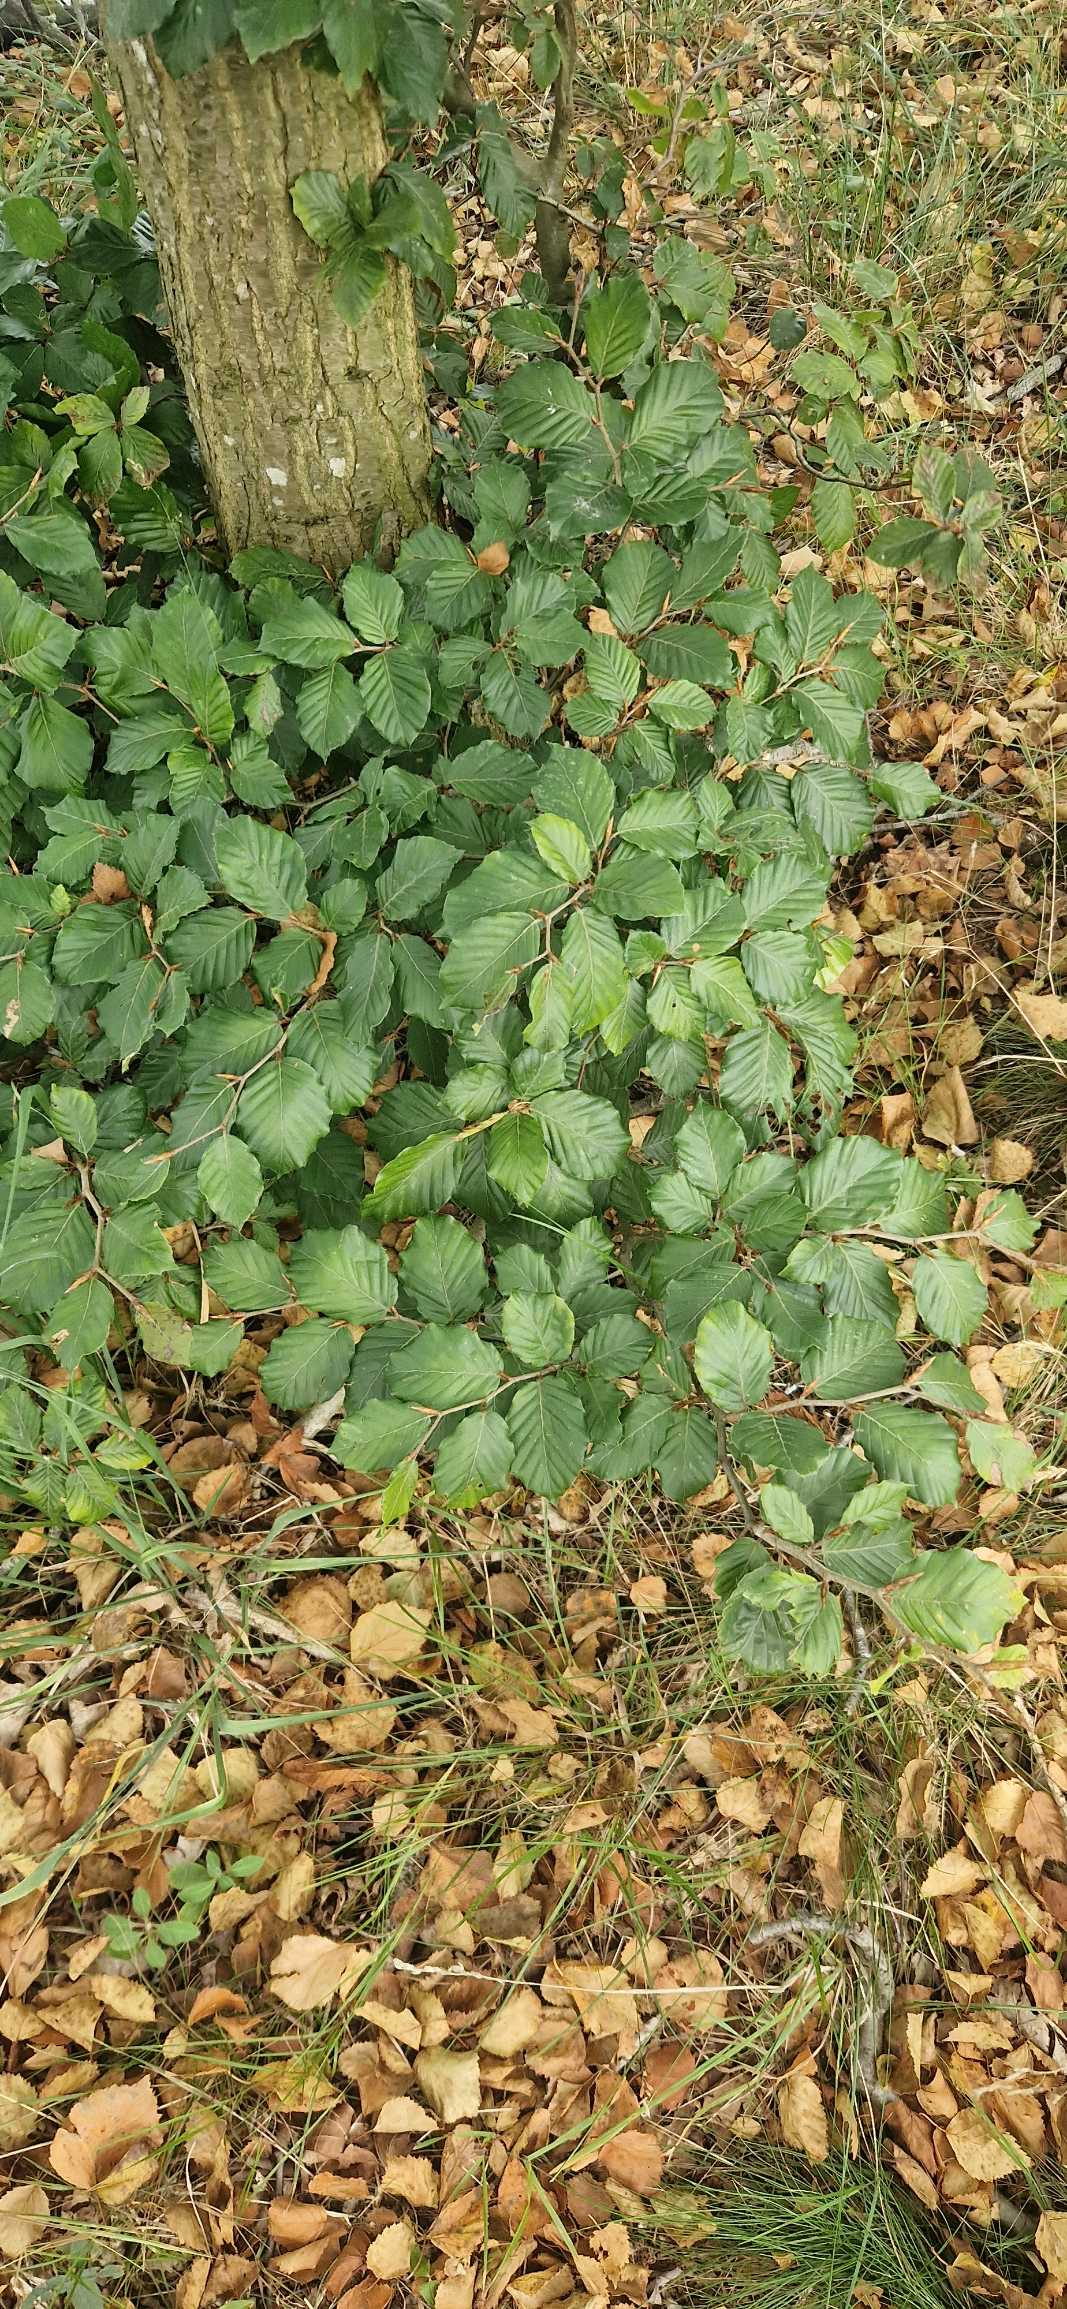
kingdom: Plantae
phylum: Tracheophyta
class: Magnoliopsida
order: Fagales
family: Fagaceae
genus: Fagus
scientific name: Fagus sylvatica
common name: Bøg
